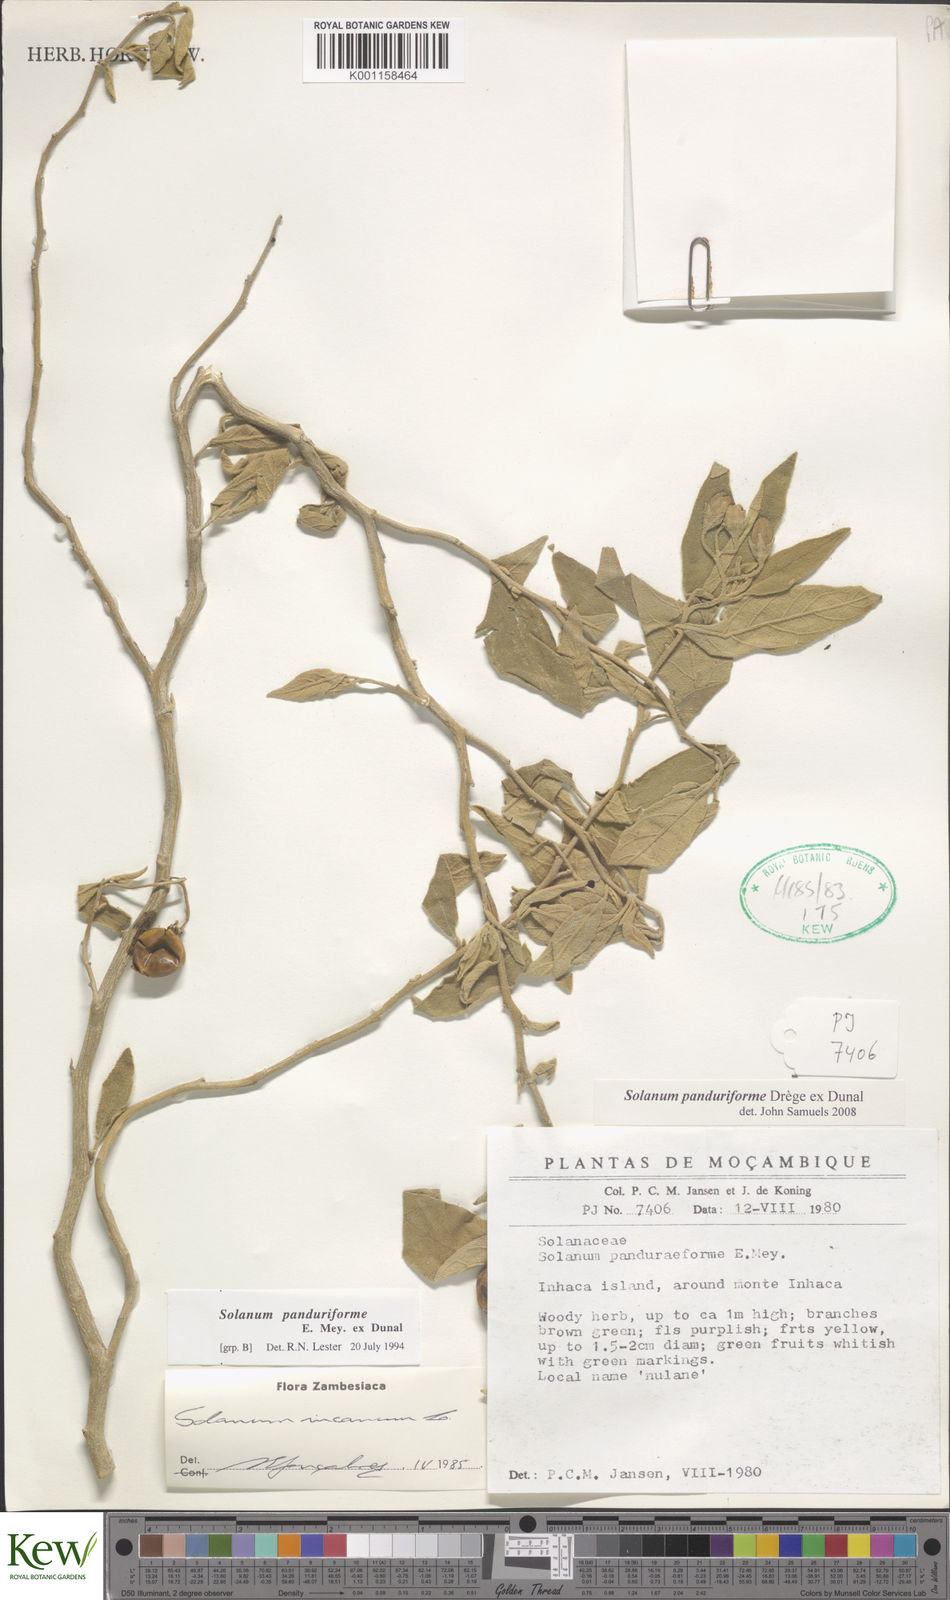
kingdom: Plantae
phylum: Tracheophyta
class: Magnoliopsida
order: Solanales
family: Solanaceae
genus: Solanum
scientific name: Solanum campylacanthum
